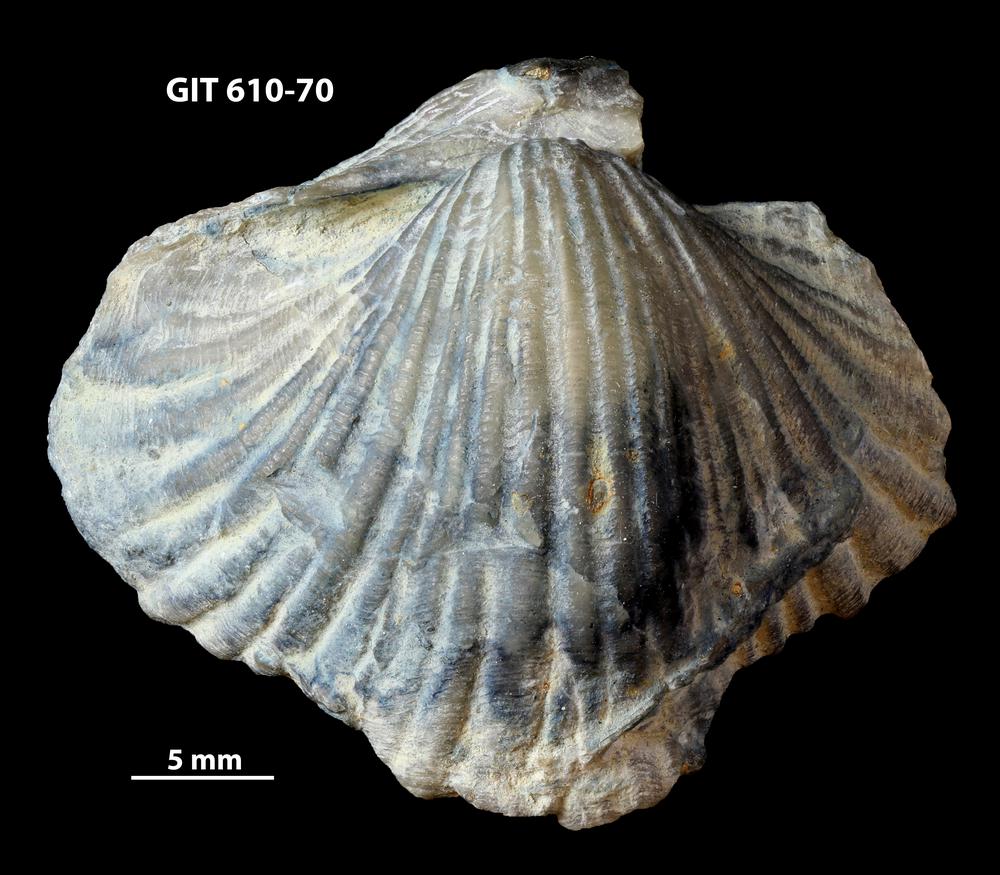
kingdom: Animalia
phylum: Brachiopoda
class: Rhynchonellata
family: Triplesiidae
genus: Ogmoplecia
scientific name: Ogmoplecia
